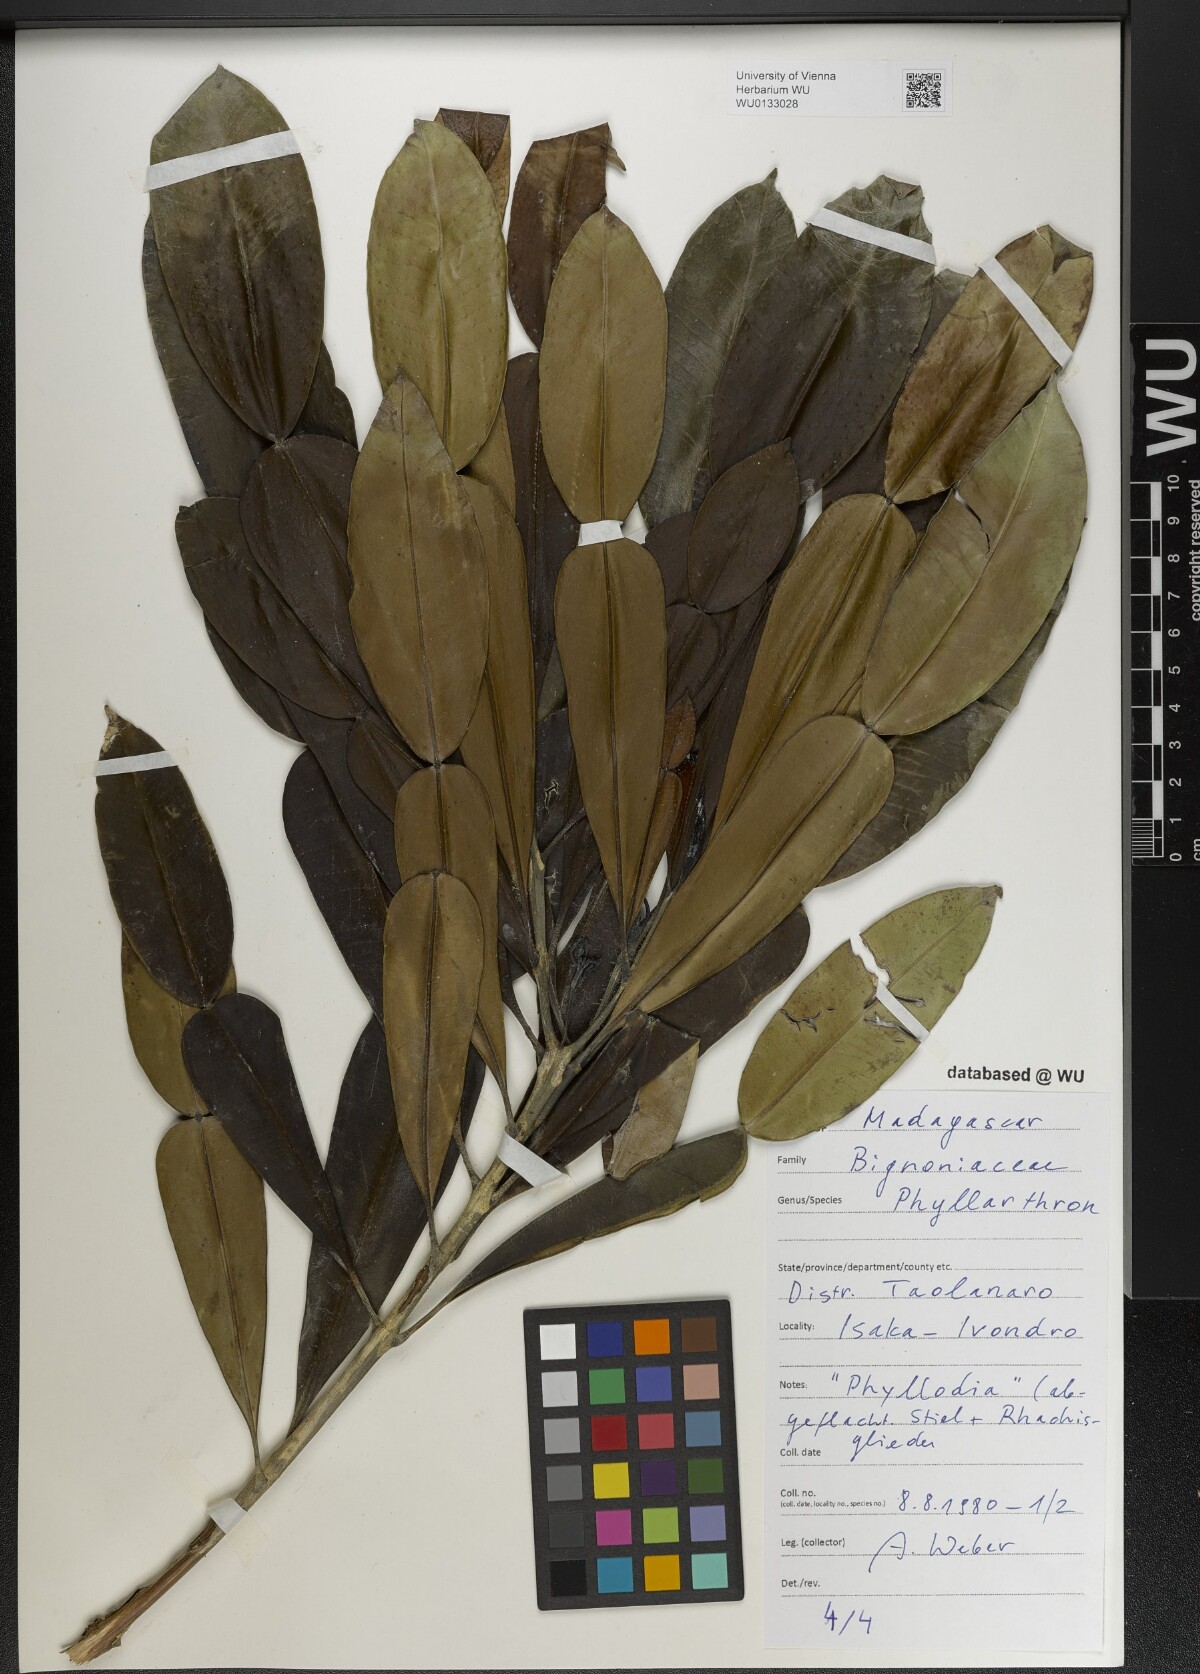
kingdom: Plantae
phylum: Tracheophyta
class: Magnoliopsida
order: Lamiales
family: Bignoniaceae
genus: Phyllarthron
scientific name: Phyllarthron
